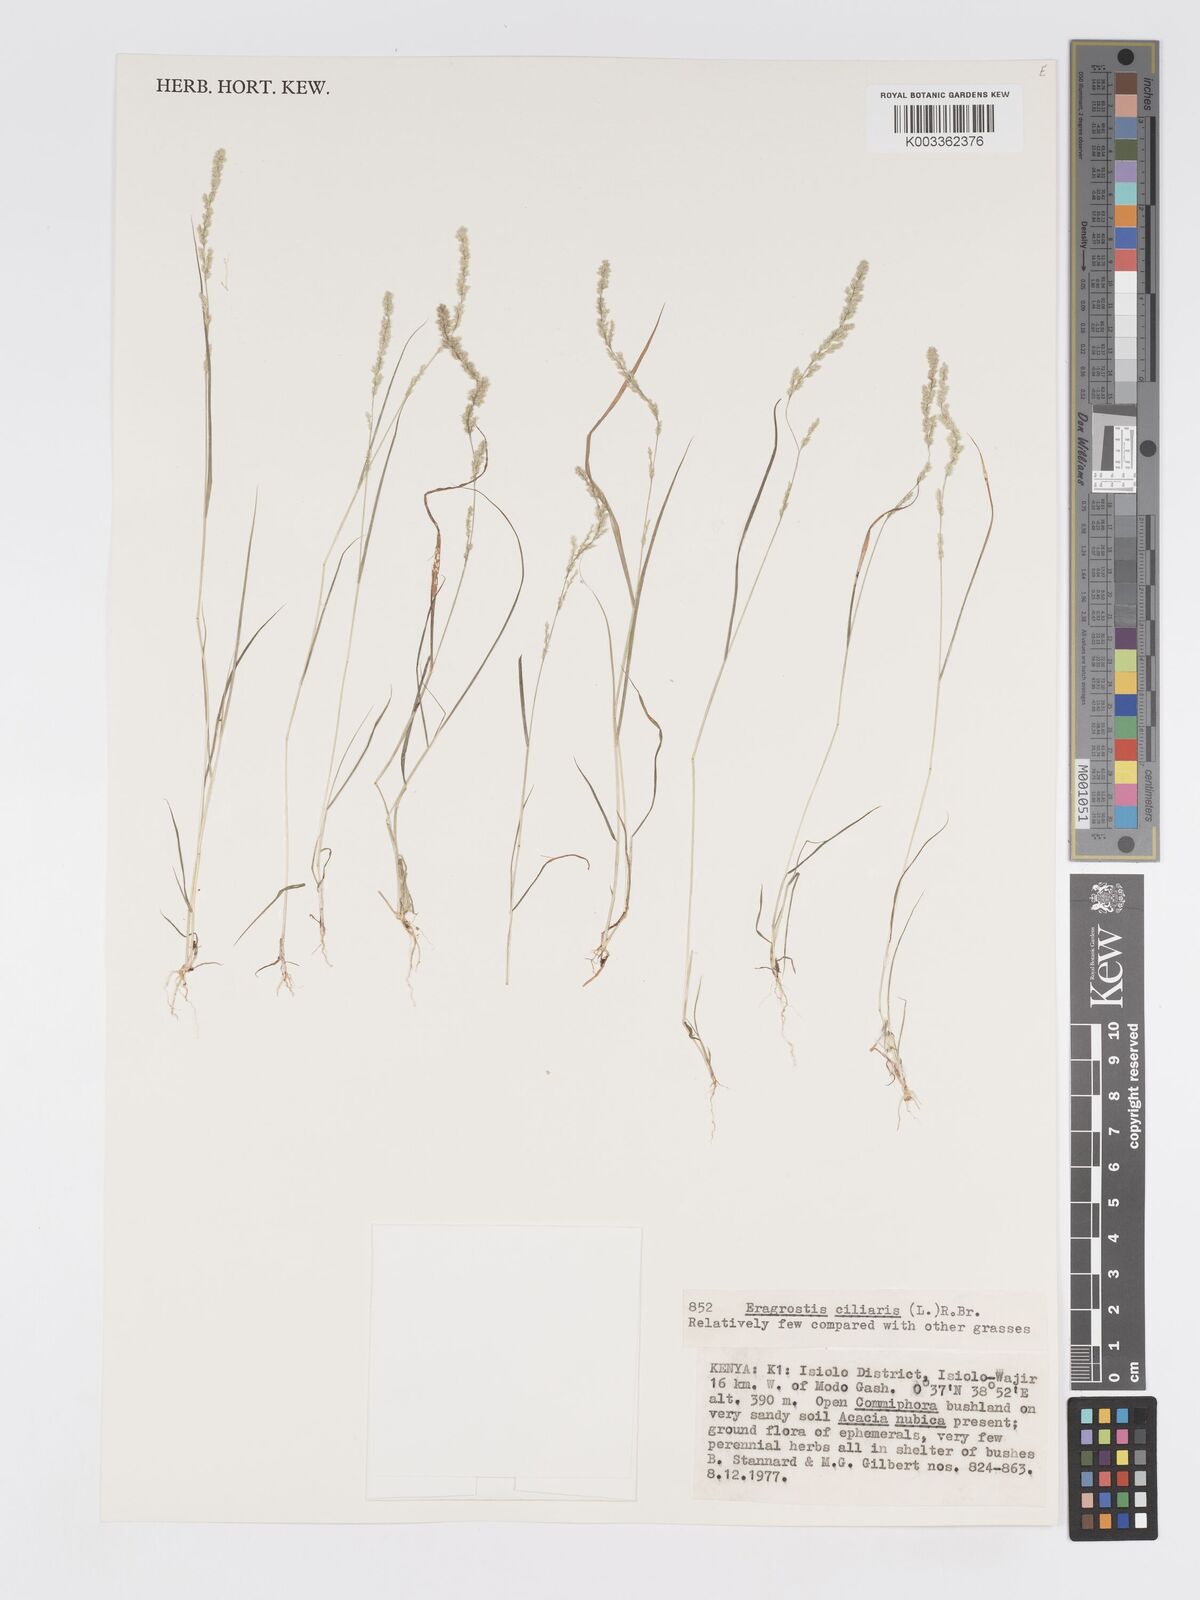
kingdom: Plantae
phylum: Tracheophyta
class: Liliopsida
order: Poales
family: Poaceae
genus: Eragrostis
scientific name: Eragrostis ciliaris
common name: Gophertail lovegrass
